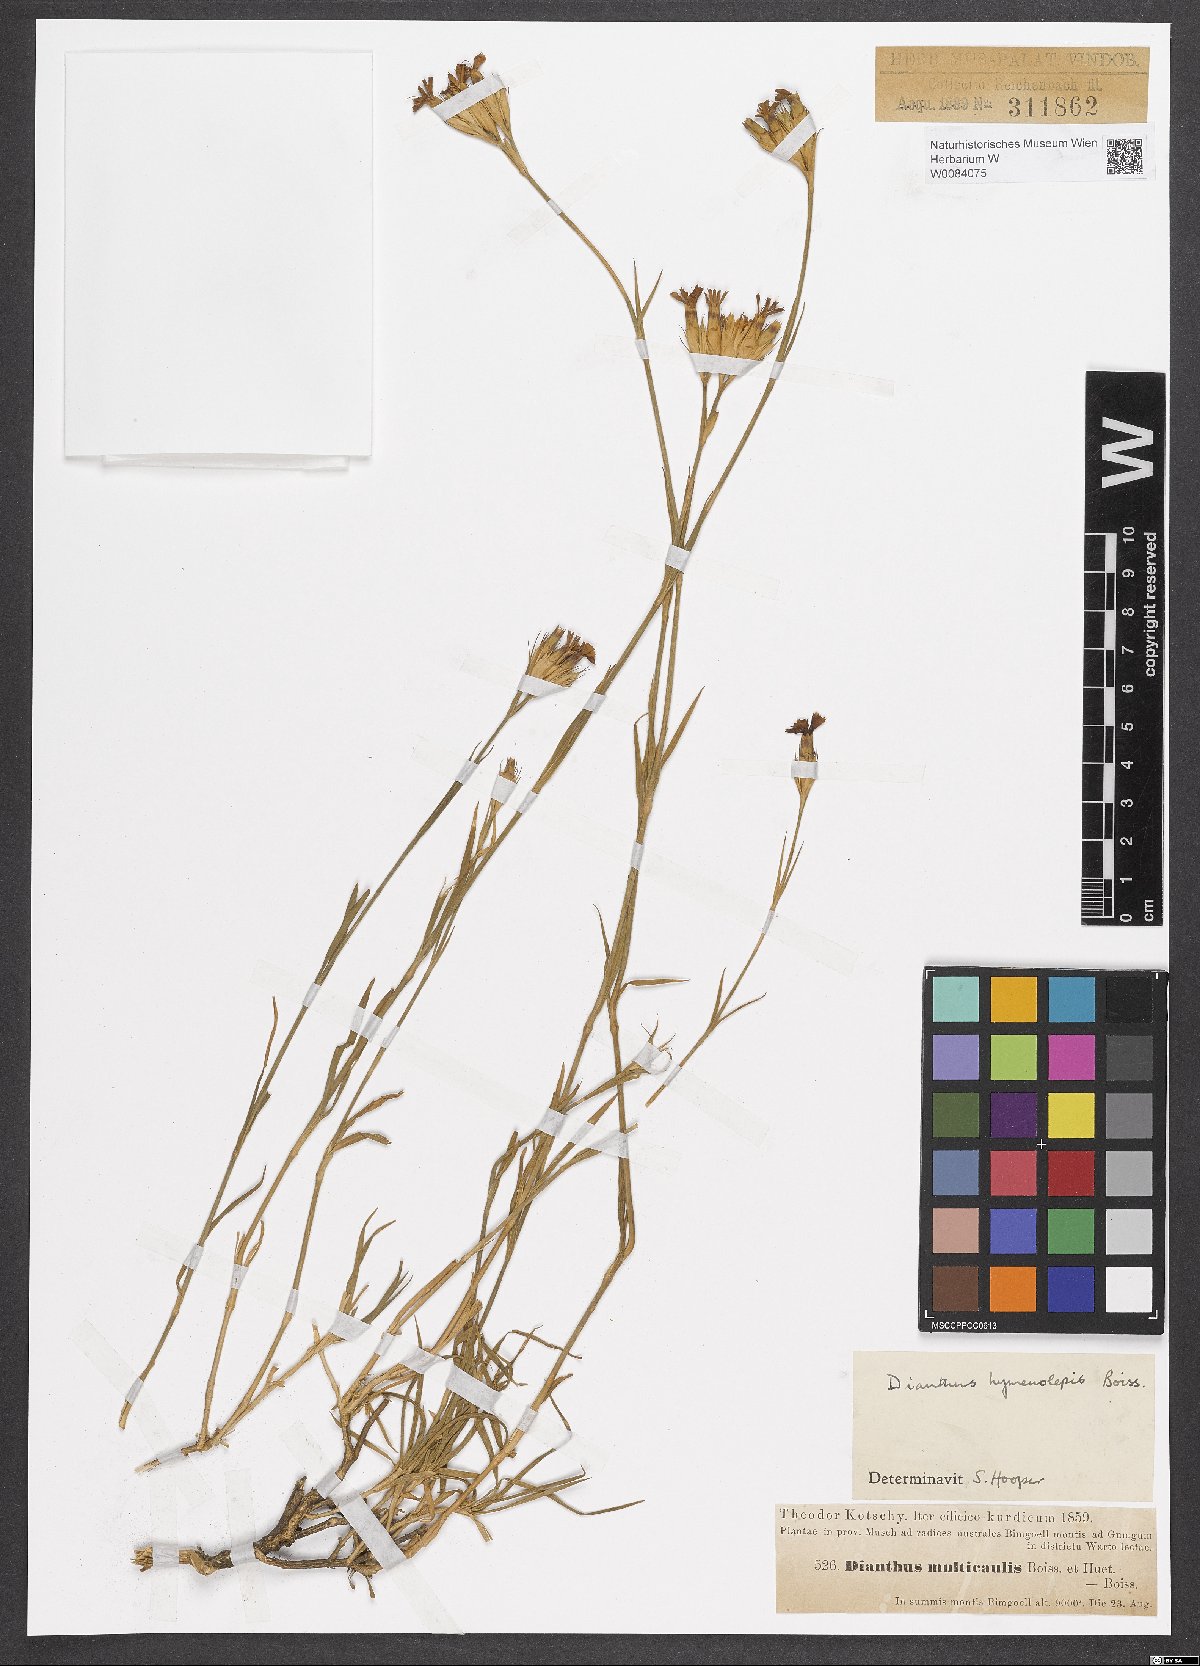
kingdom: Plantae
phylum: Tracheophyta
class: Magnoliopsida
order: Caryophyllales
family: Caryophyllaceae
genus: Dianthus
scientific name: Dianthus hymenolepis
